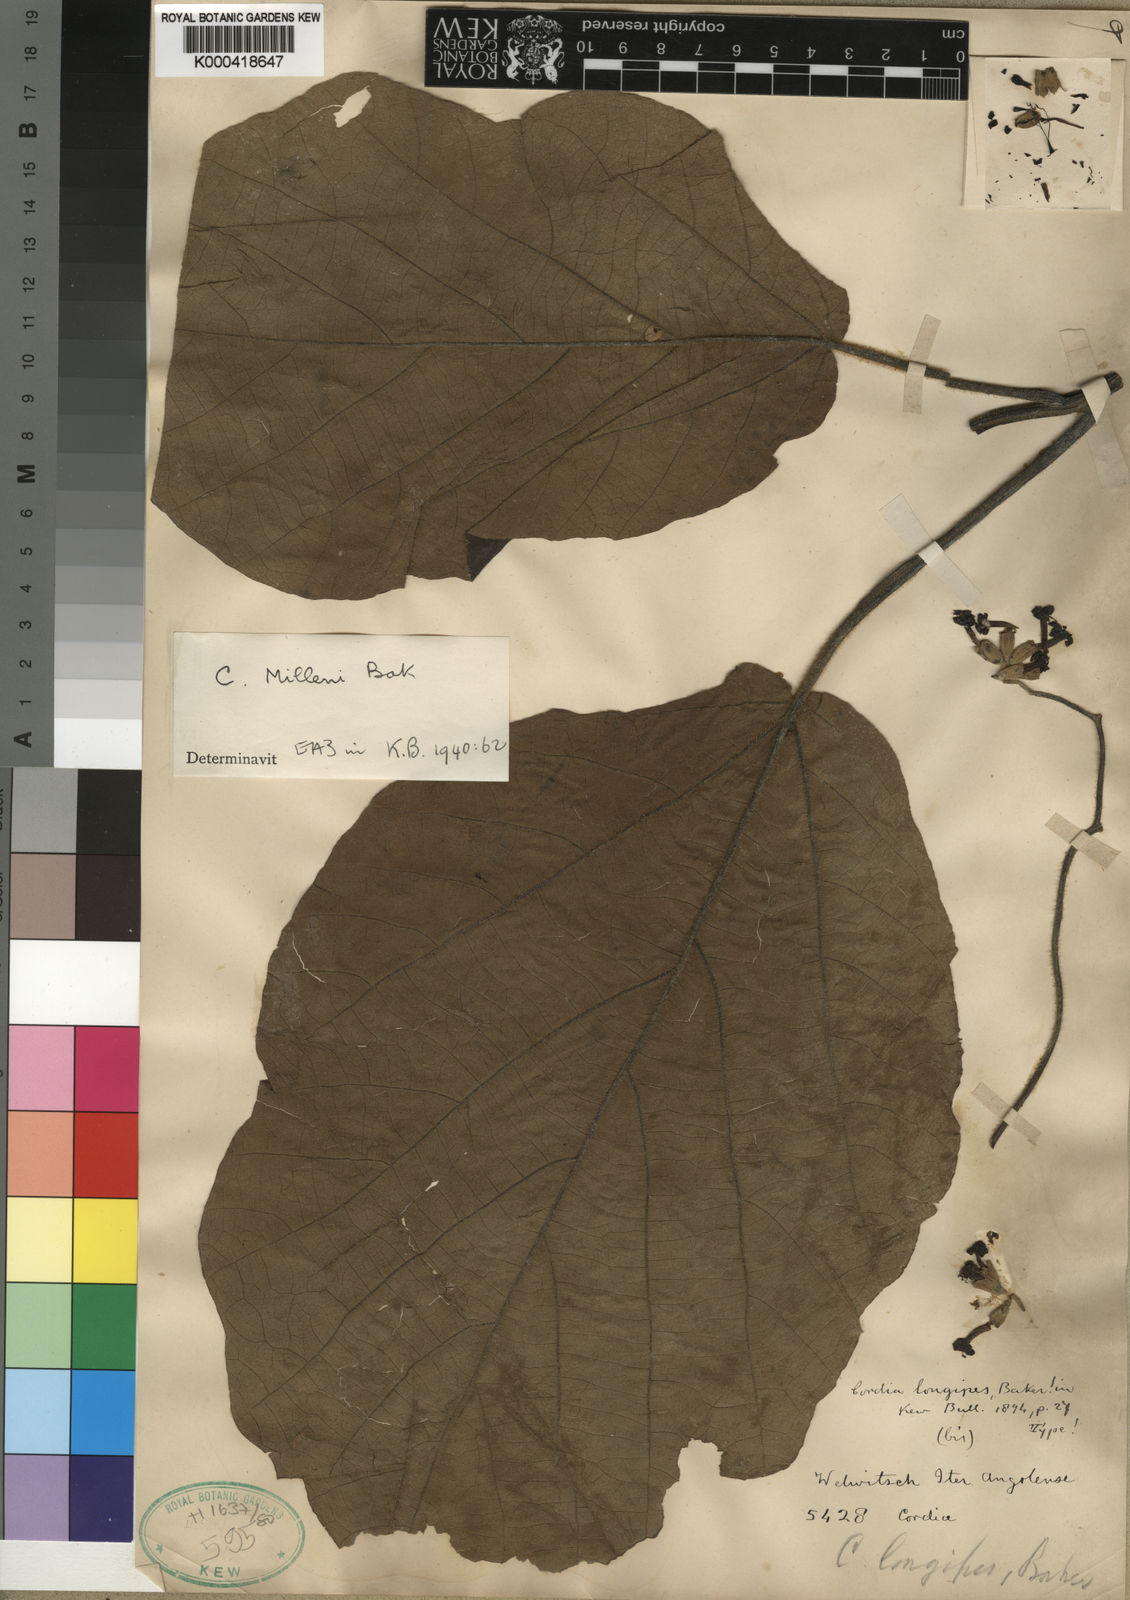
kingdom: Plantae
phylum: Tracheophyta
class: Magnoliopsida
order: Boraginales
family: Cordiaceae
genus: Cordia
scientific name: Cordia millenii
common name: Drum tree
